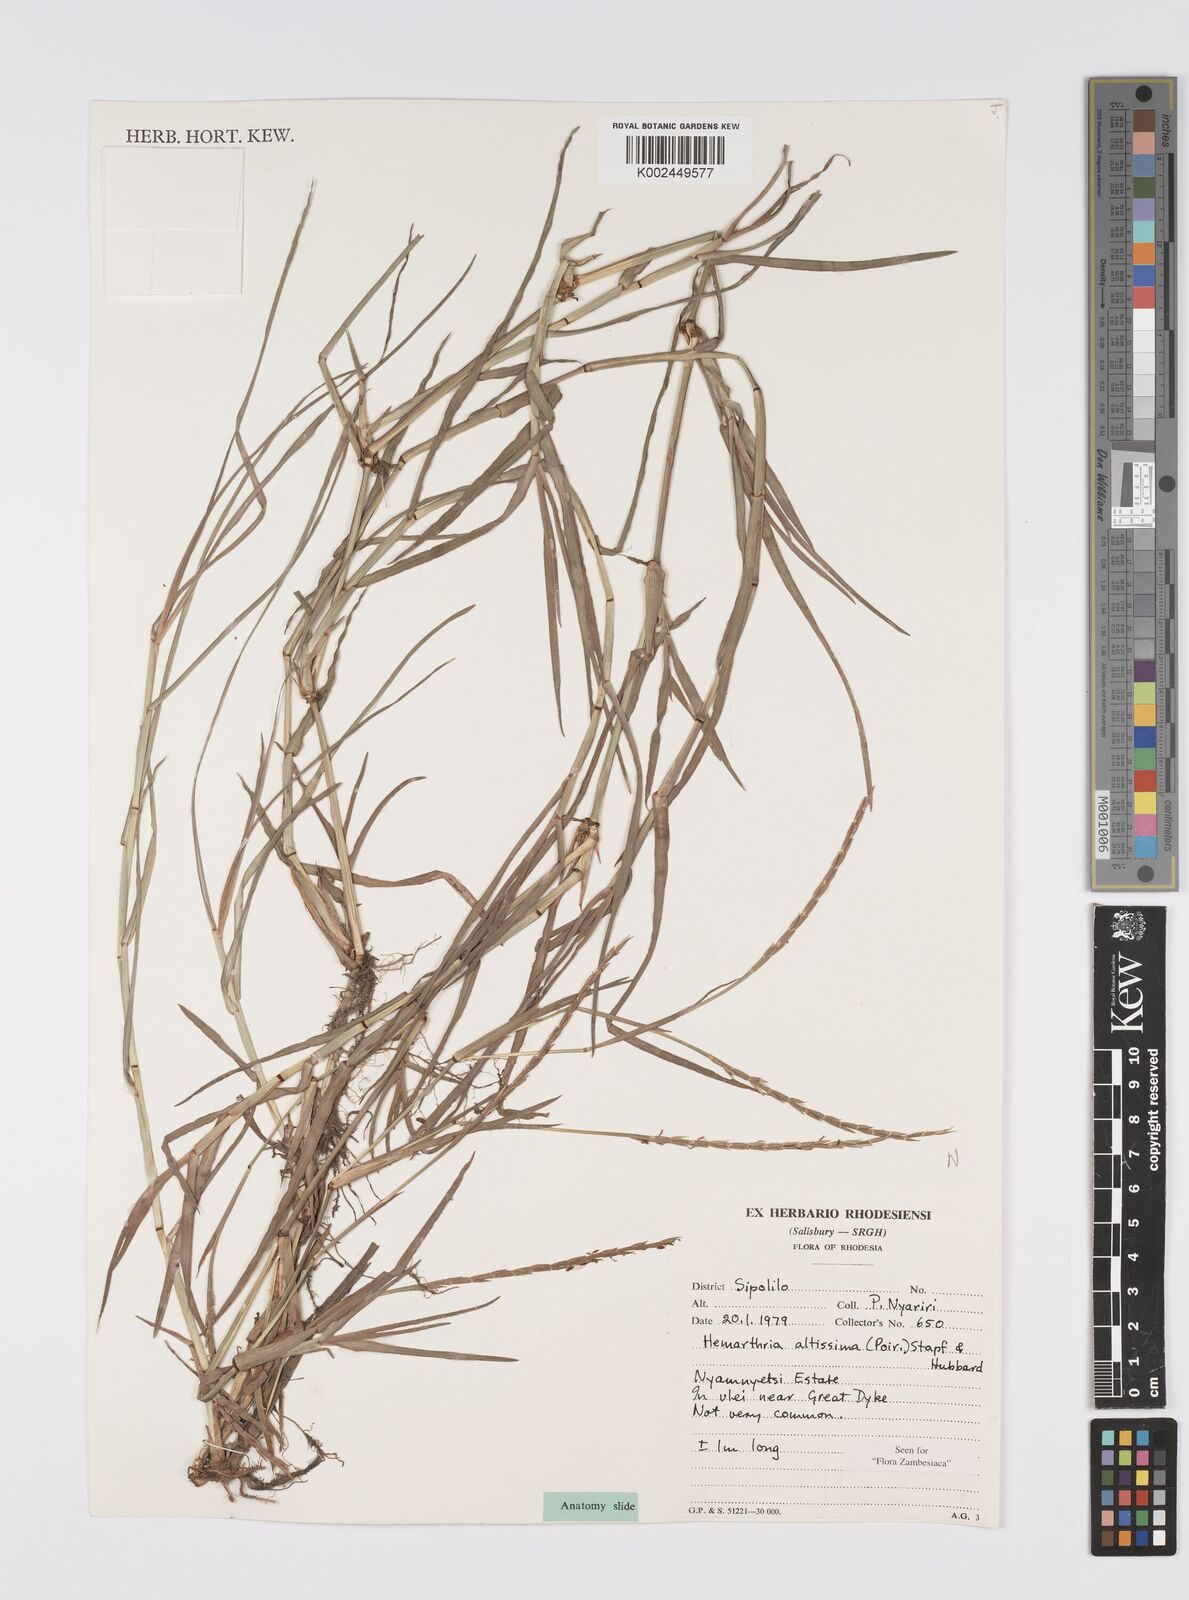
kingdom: Plantae
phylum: Tracheophyta
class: Liliopsida
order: Poales
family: Poaceae
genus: Hemarthria
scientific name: Hemarthria altissima
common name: African jointgrass
